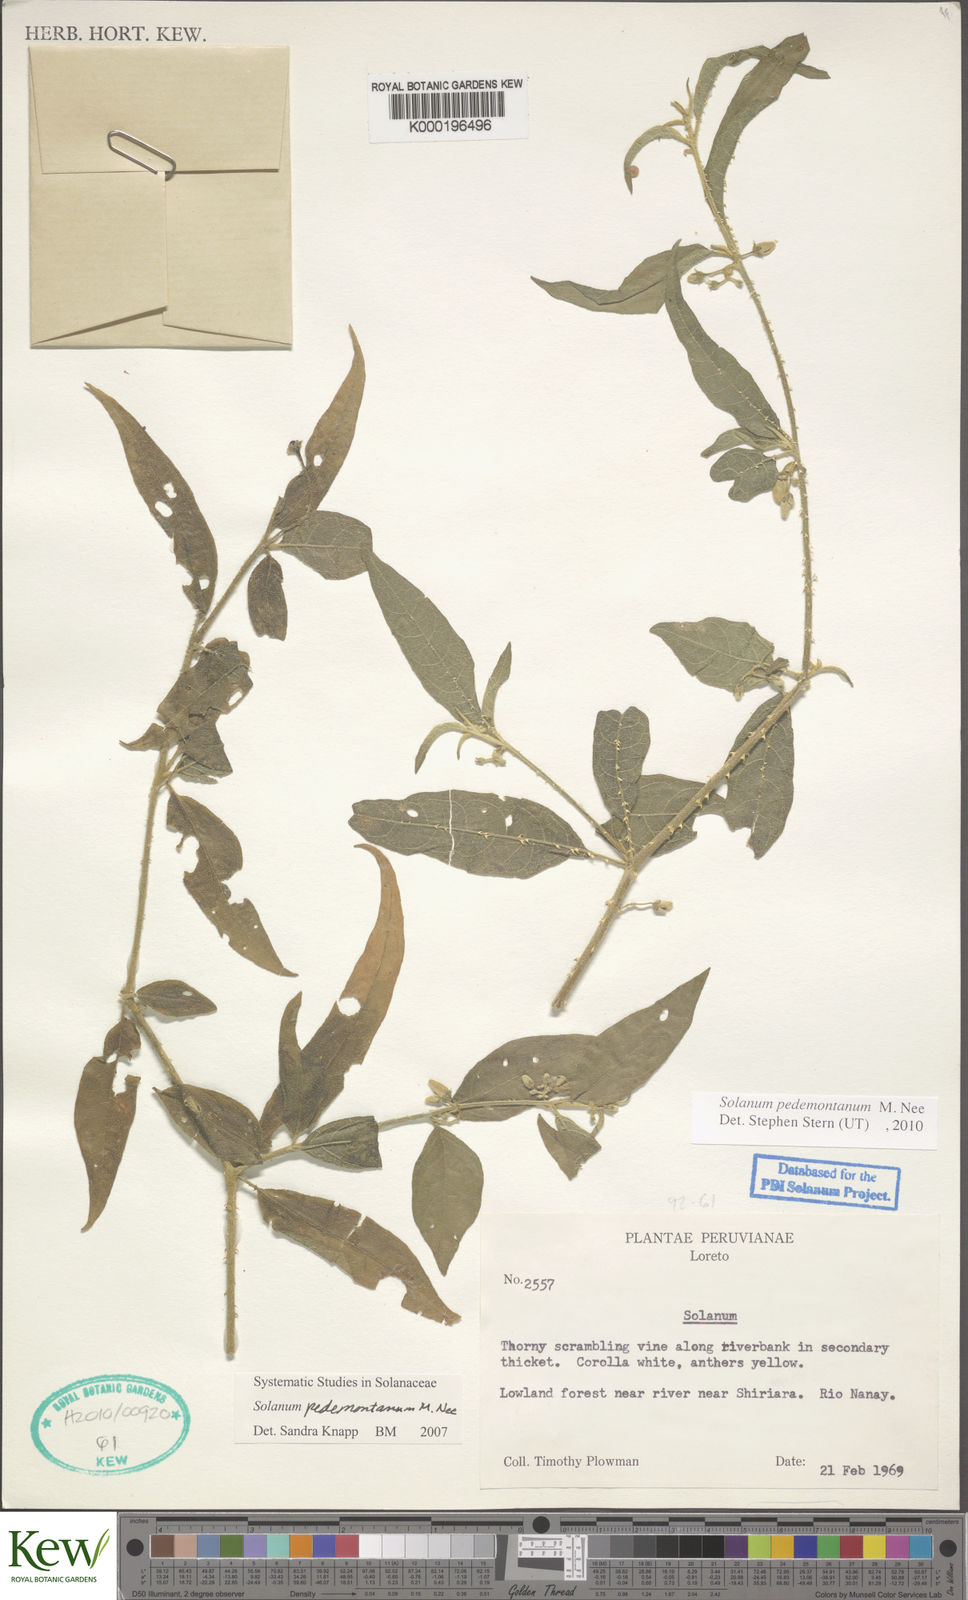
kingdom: Plantae
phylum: Tracheophyta
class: Magnoliopsida
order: Solanales
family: Solanaceae
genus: Solanum
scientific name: Solanum pedemontanum
